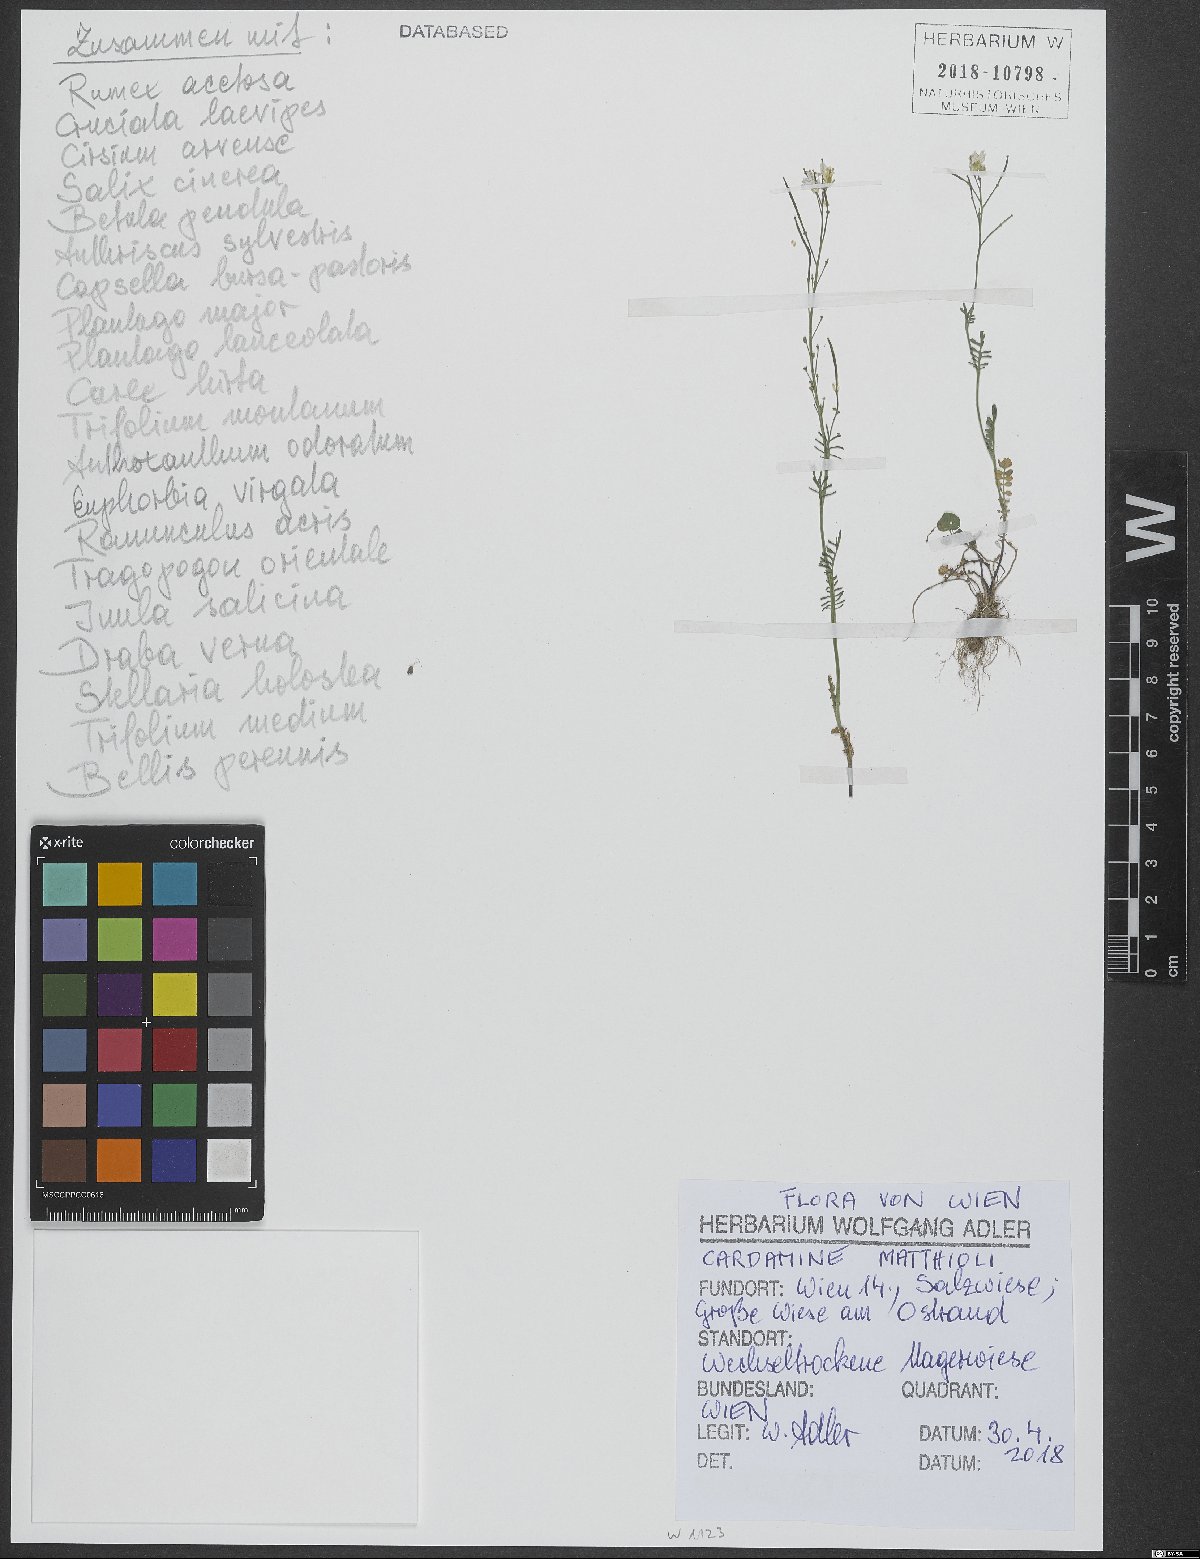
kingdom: Plantae
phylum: Tracheophyta
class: Magnoliopsida
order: Brassicales
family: Brassicaceae
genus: Cardamine
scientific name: Cardamine matthioli
